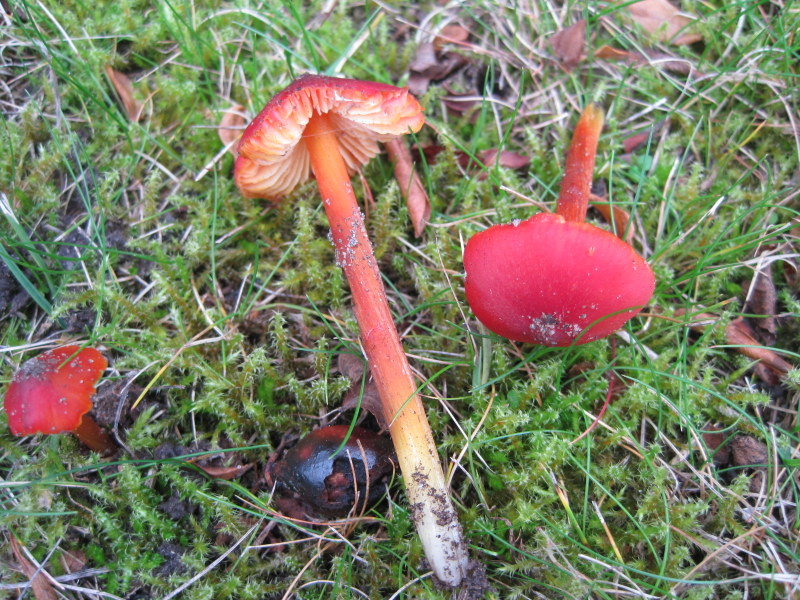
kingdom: Fungi
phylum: Basidiomycota
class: Agaricomycetes
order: Agaricales
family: Hygrophoraceae
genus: Hygrocybe
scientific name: Hygrocybe conica
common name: kegle-vokshat
